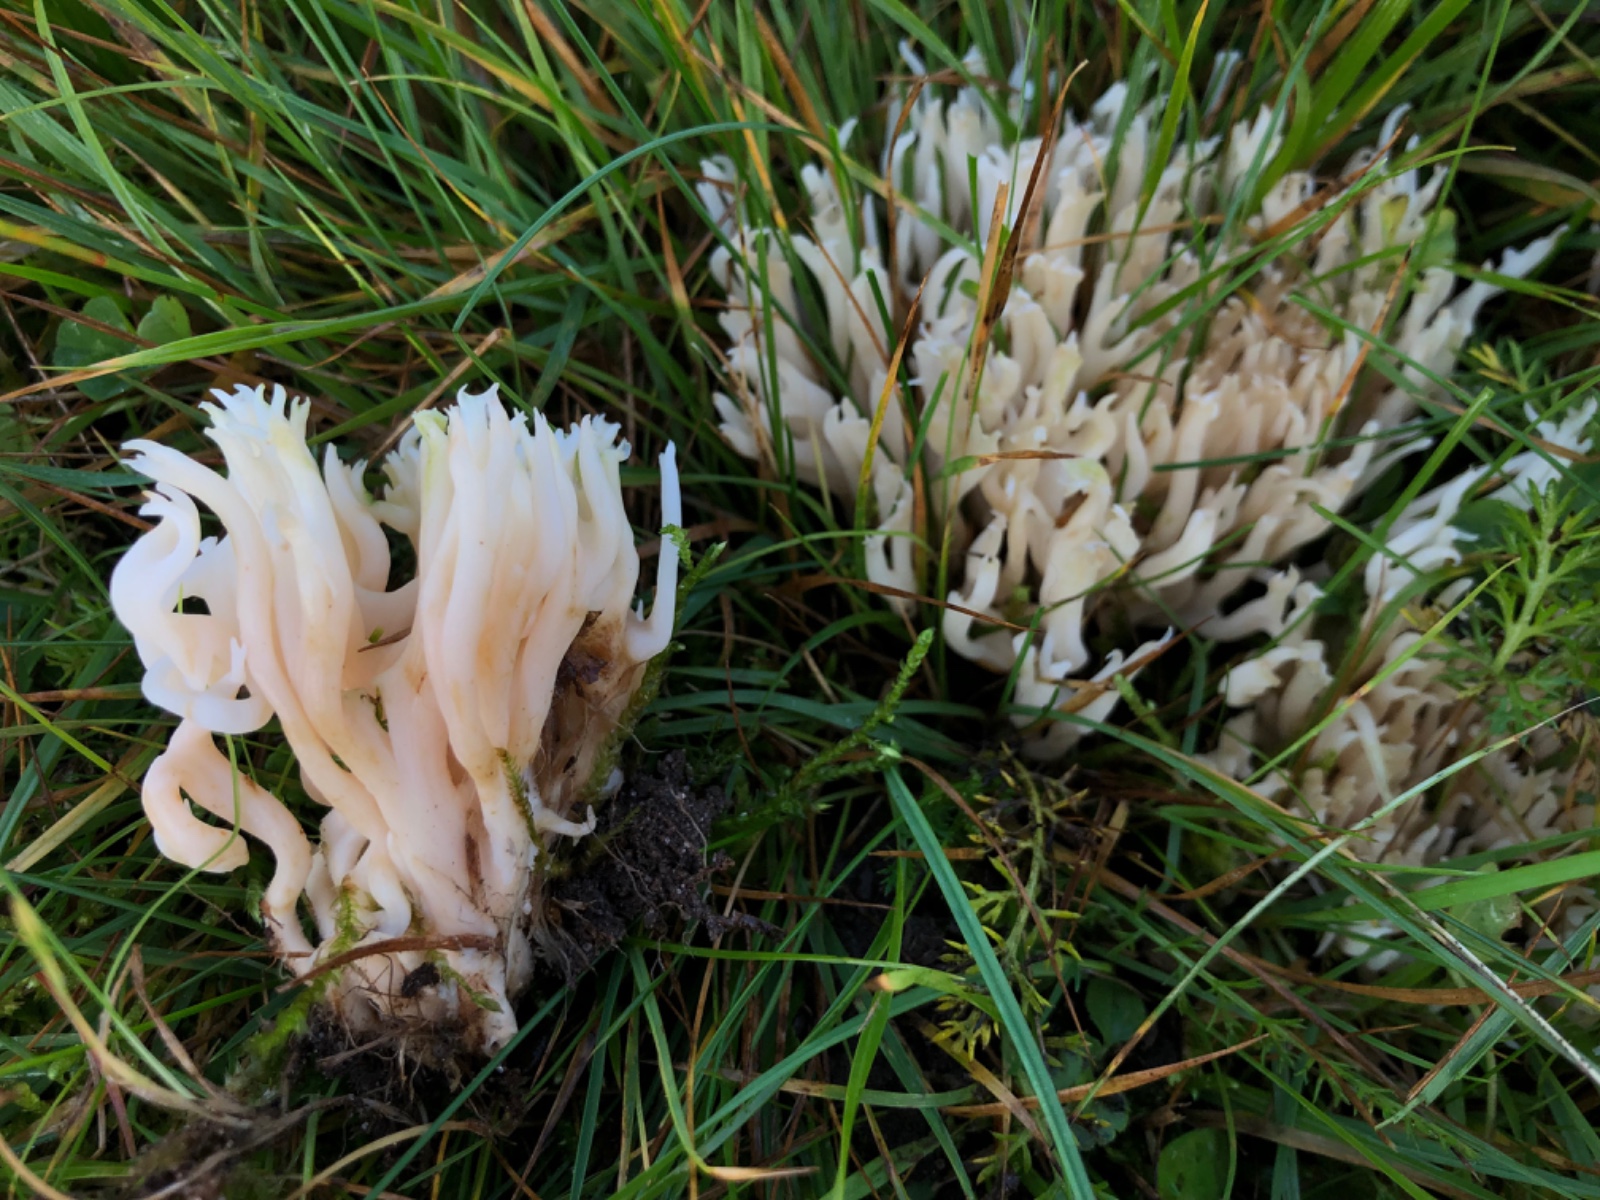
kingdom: Fungi
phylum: Basidiomycota
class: Agaricomycetes
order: Agaricales
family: Clavariaceae
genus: Ramariopsis
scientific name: Ramariopsis robusta
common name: tykgrenet køllesvamp
